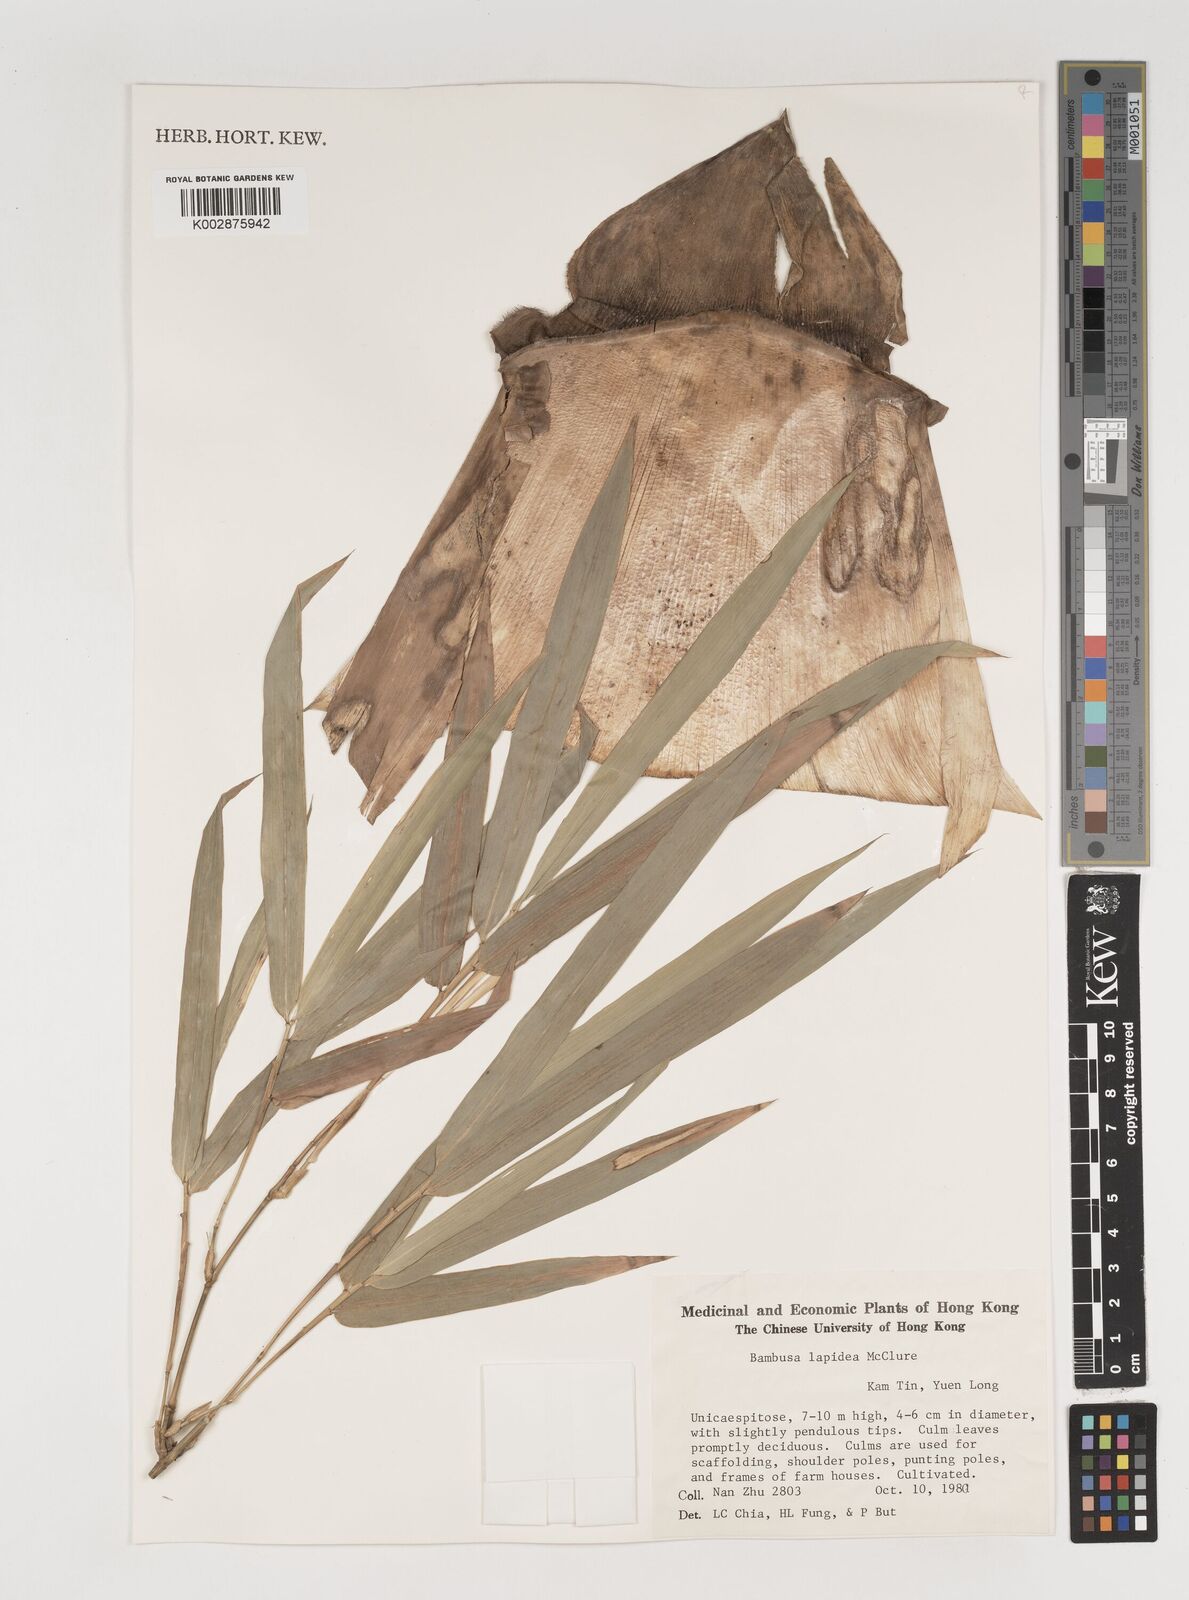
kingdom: Plantae
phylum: Tracheophyta
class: Liliopsida
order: Poales
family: Poaceae
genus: Bambusa
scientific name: Bambusa lapidea
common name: Horsehoof bamboo
